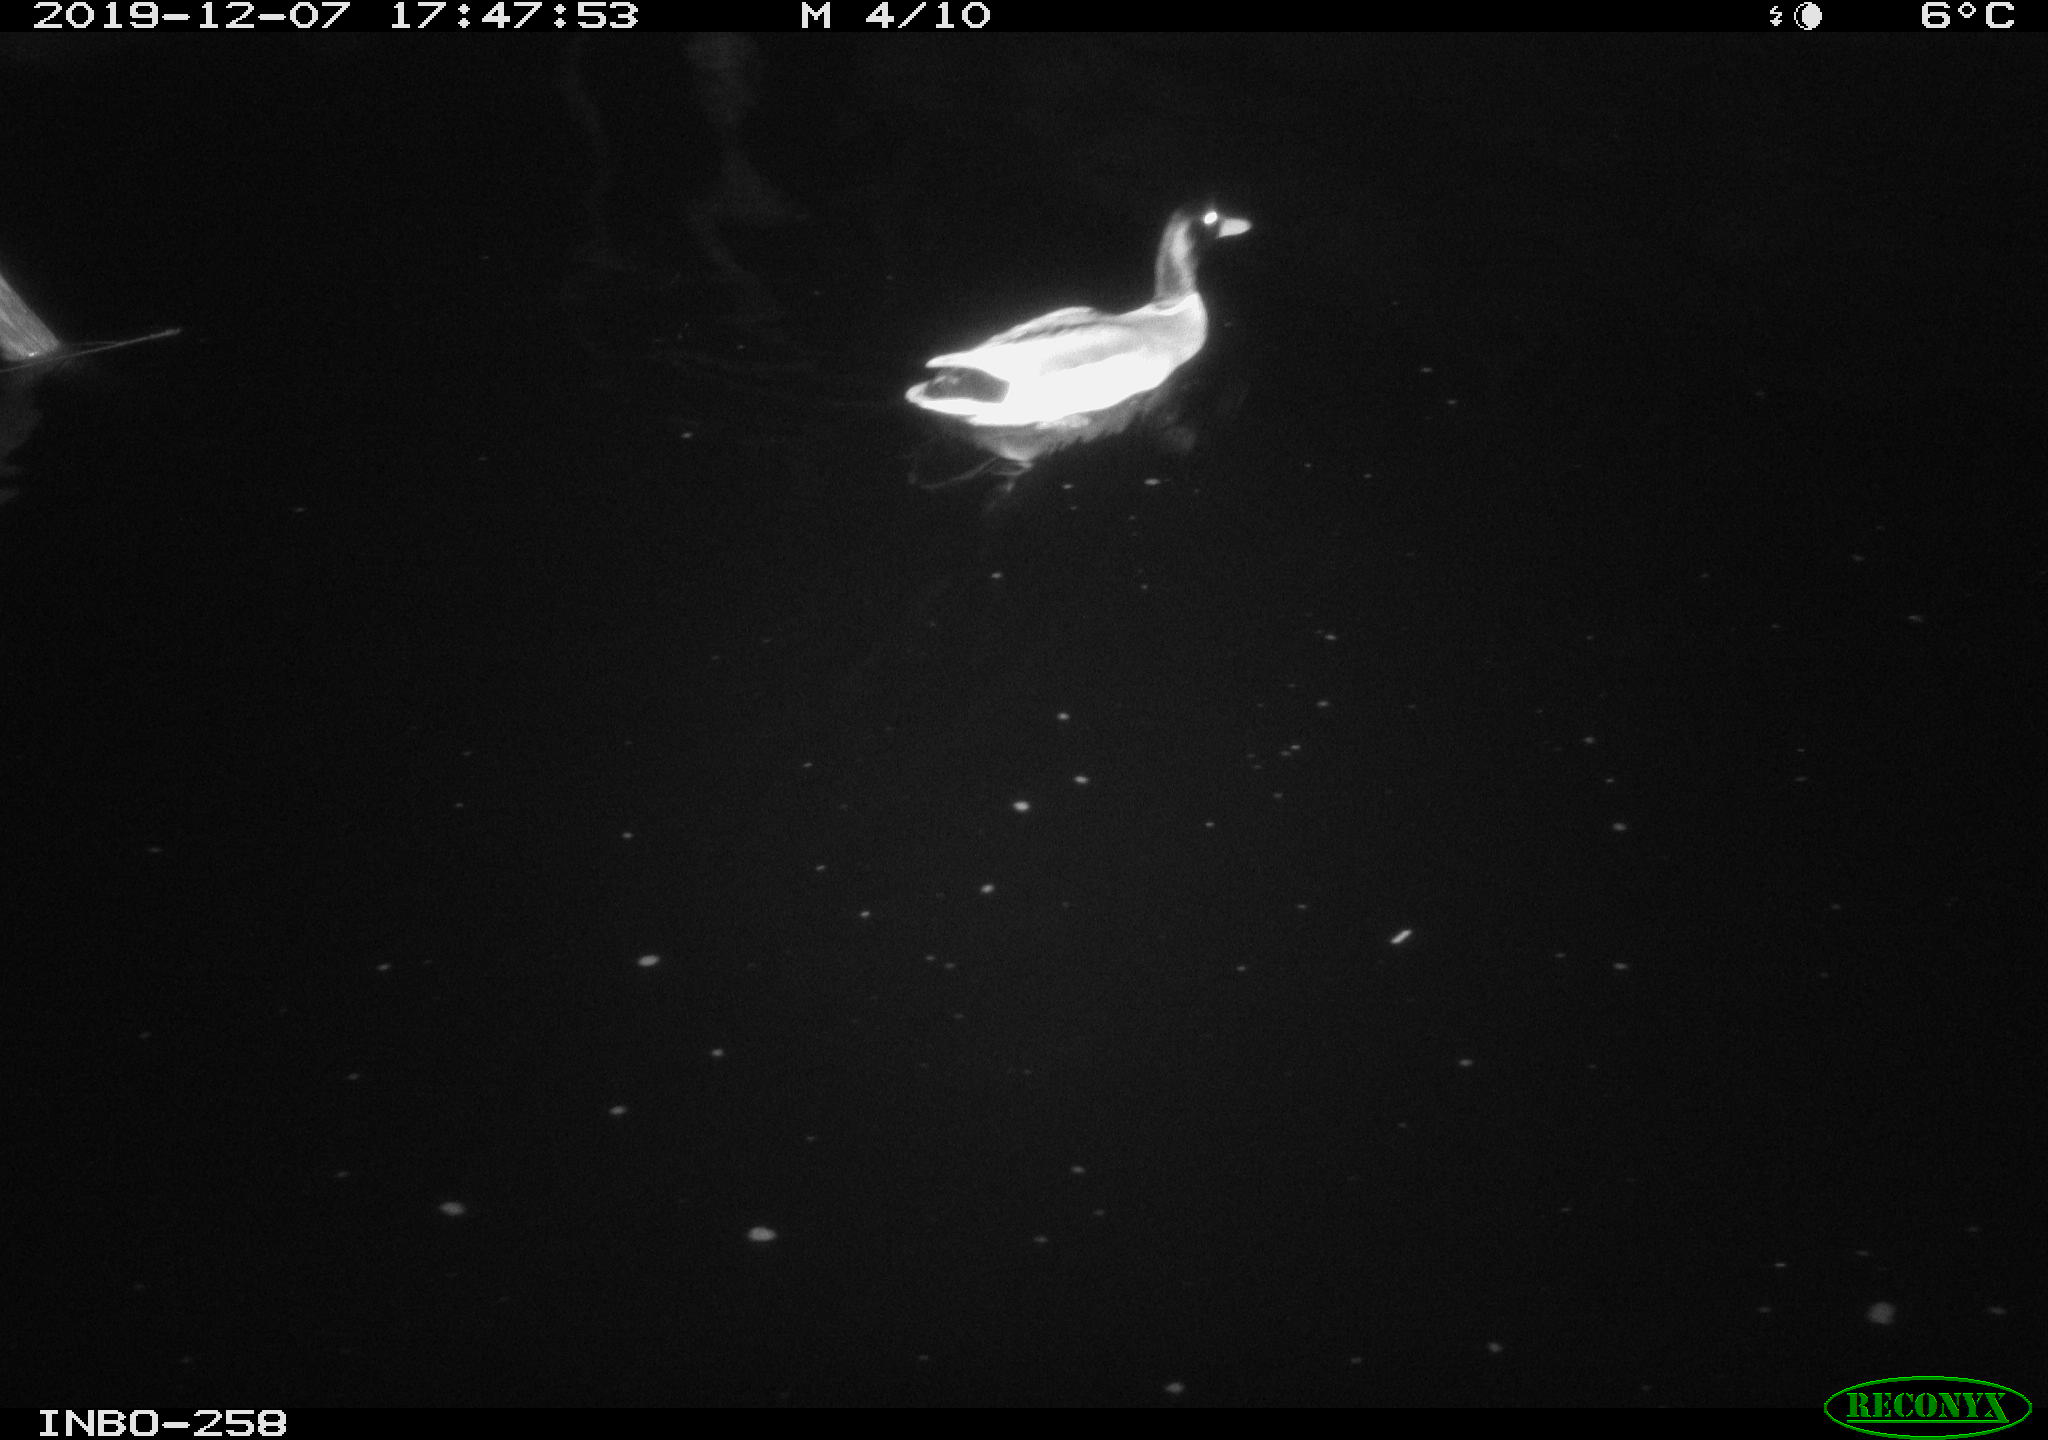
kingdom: Animalia
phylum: Chordata
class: Aves
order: Anseriformes
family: Anatidae
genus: Anas
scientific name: Anas platyrhynchos
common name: Mallard
